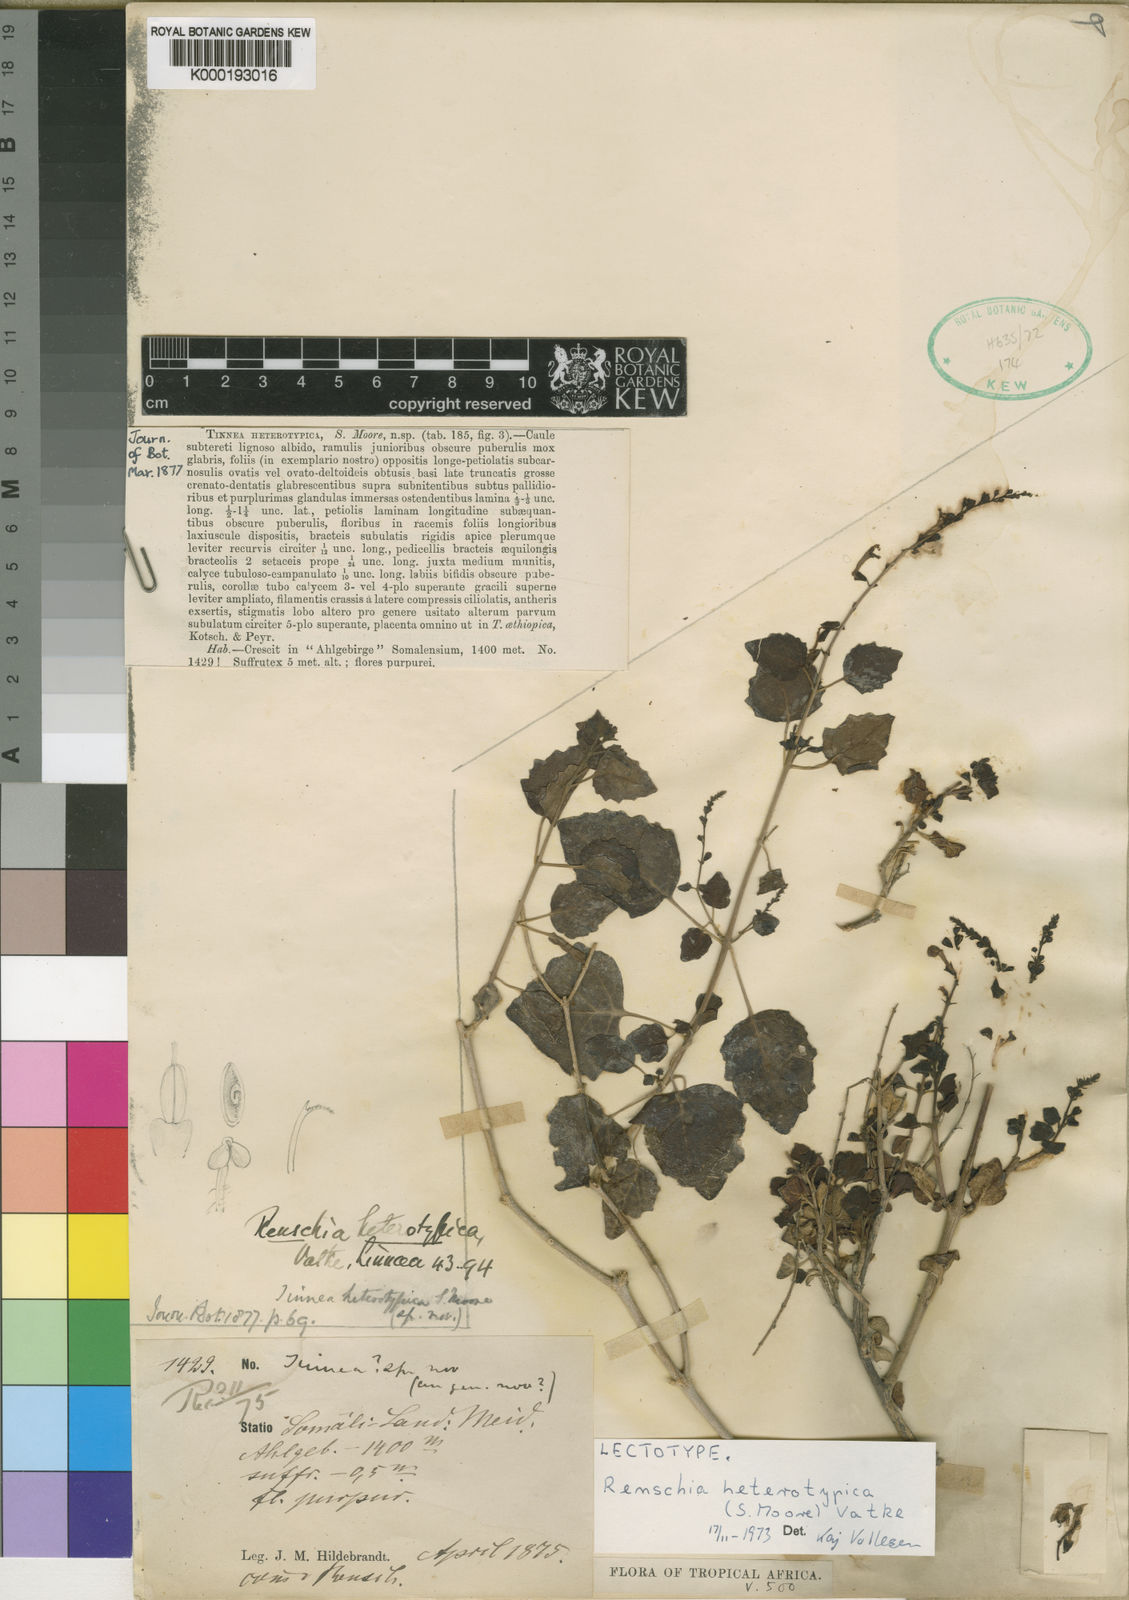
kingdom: Plantae
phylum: Tracheophyta
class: Magnoliopsida
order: Lamiales
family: Lamiaceae
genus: Renschia
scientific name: Renschia heterotypica
